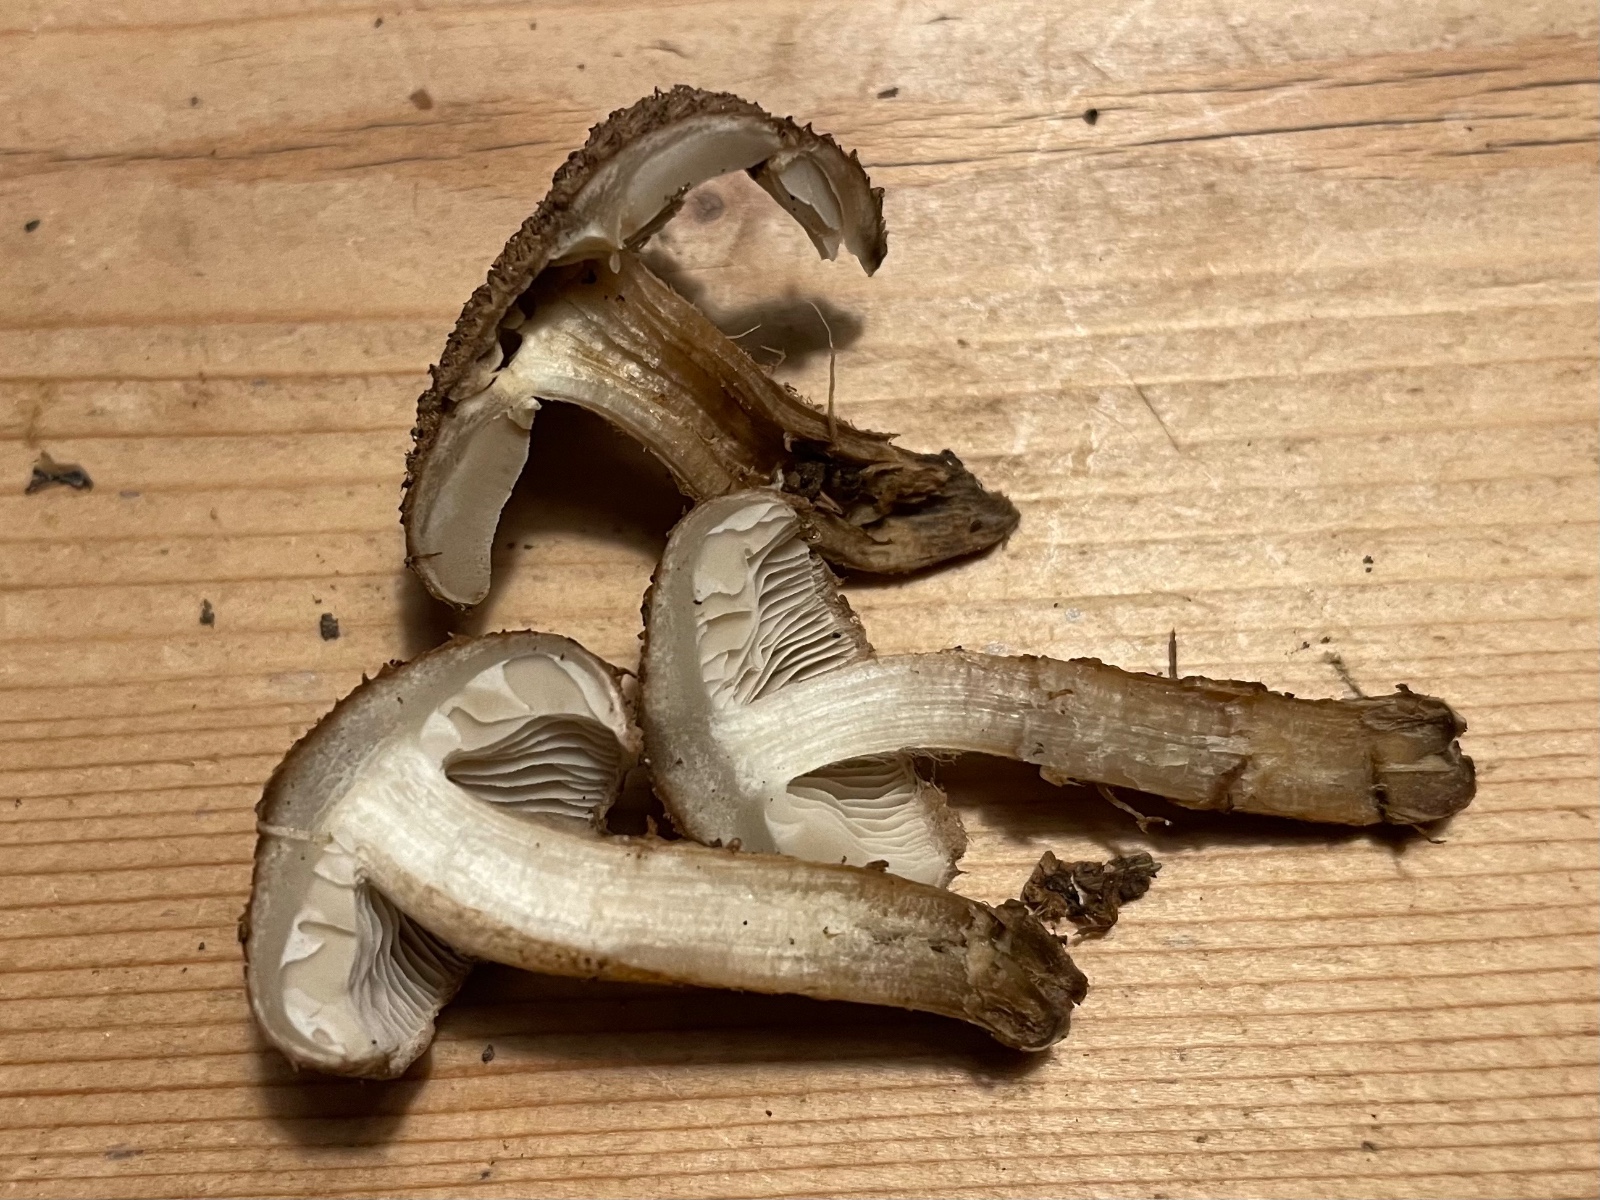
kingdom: Fungi
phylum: Basidiomycota
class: Agaricomycetes
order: Agaricales
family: Inocybaceae
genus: Inocybe
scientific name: Inocybe
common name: trævlhat
